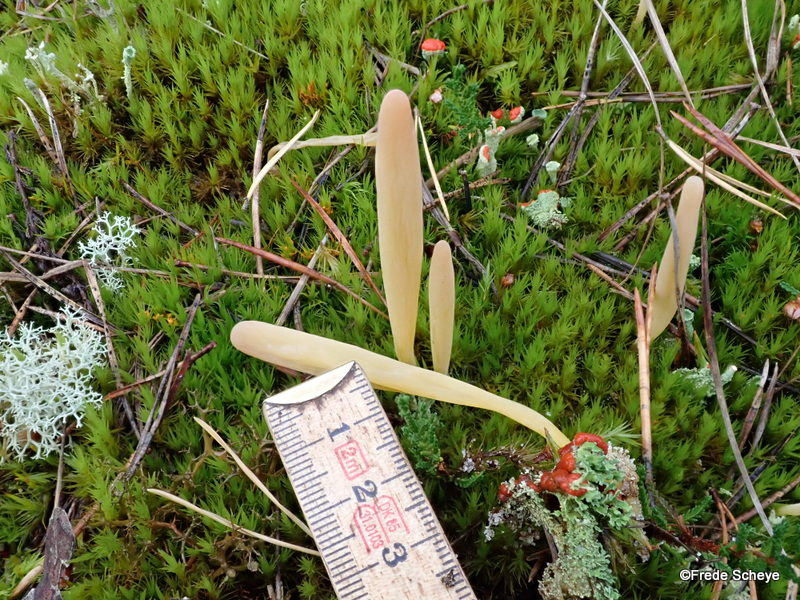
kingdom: Fungi
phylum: Basidiomycota
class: Agaricomycetes
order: Agaricales
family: Clavariaceae
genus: Clavaria
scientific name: Clavaria argillacea
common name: lerfarvet køllesvamp
